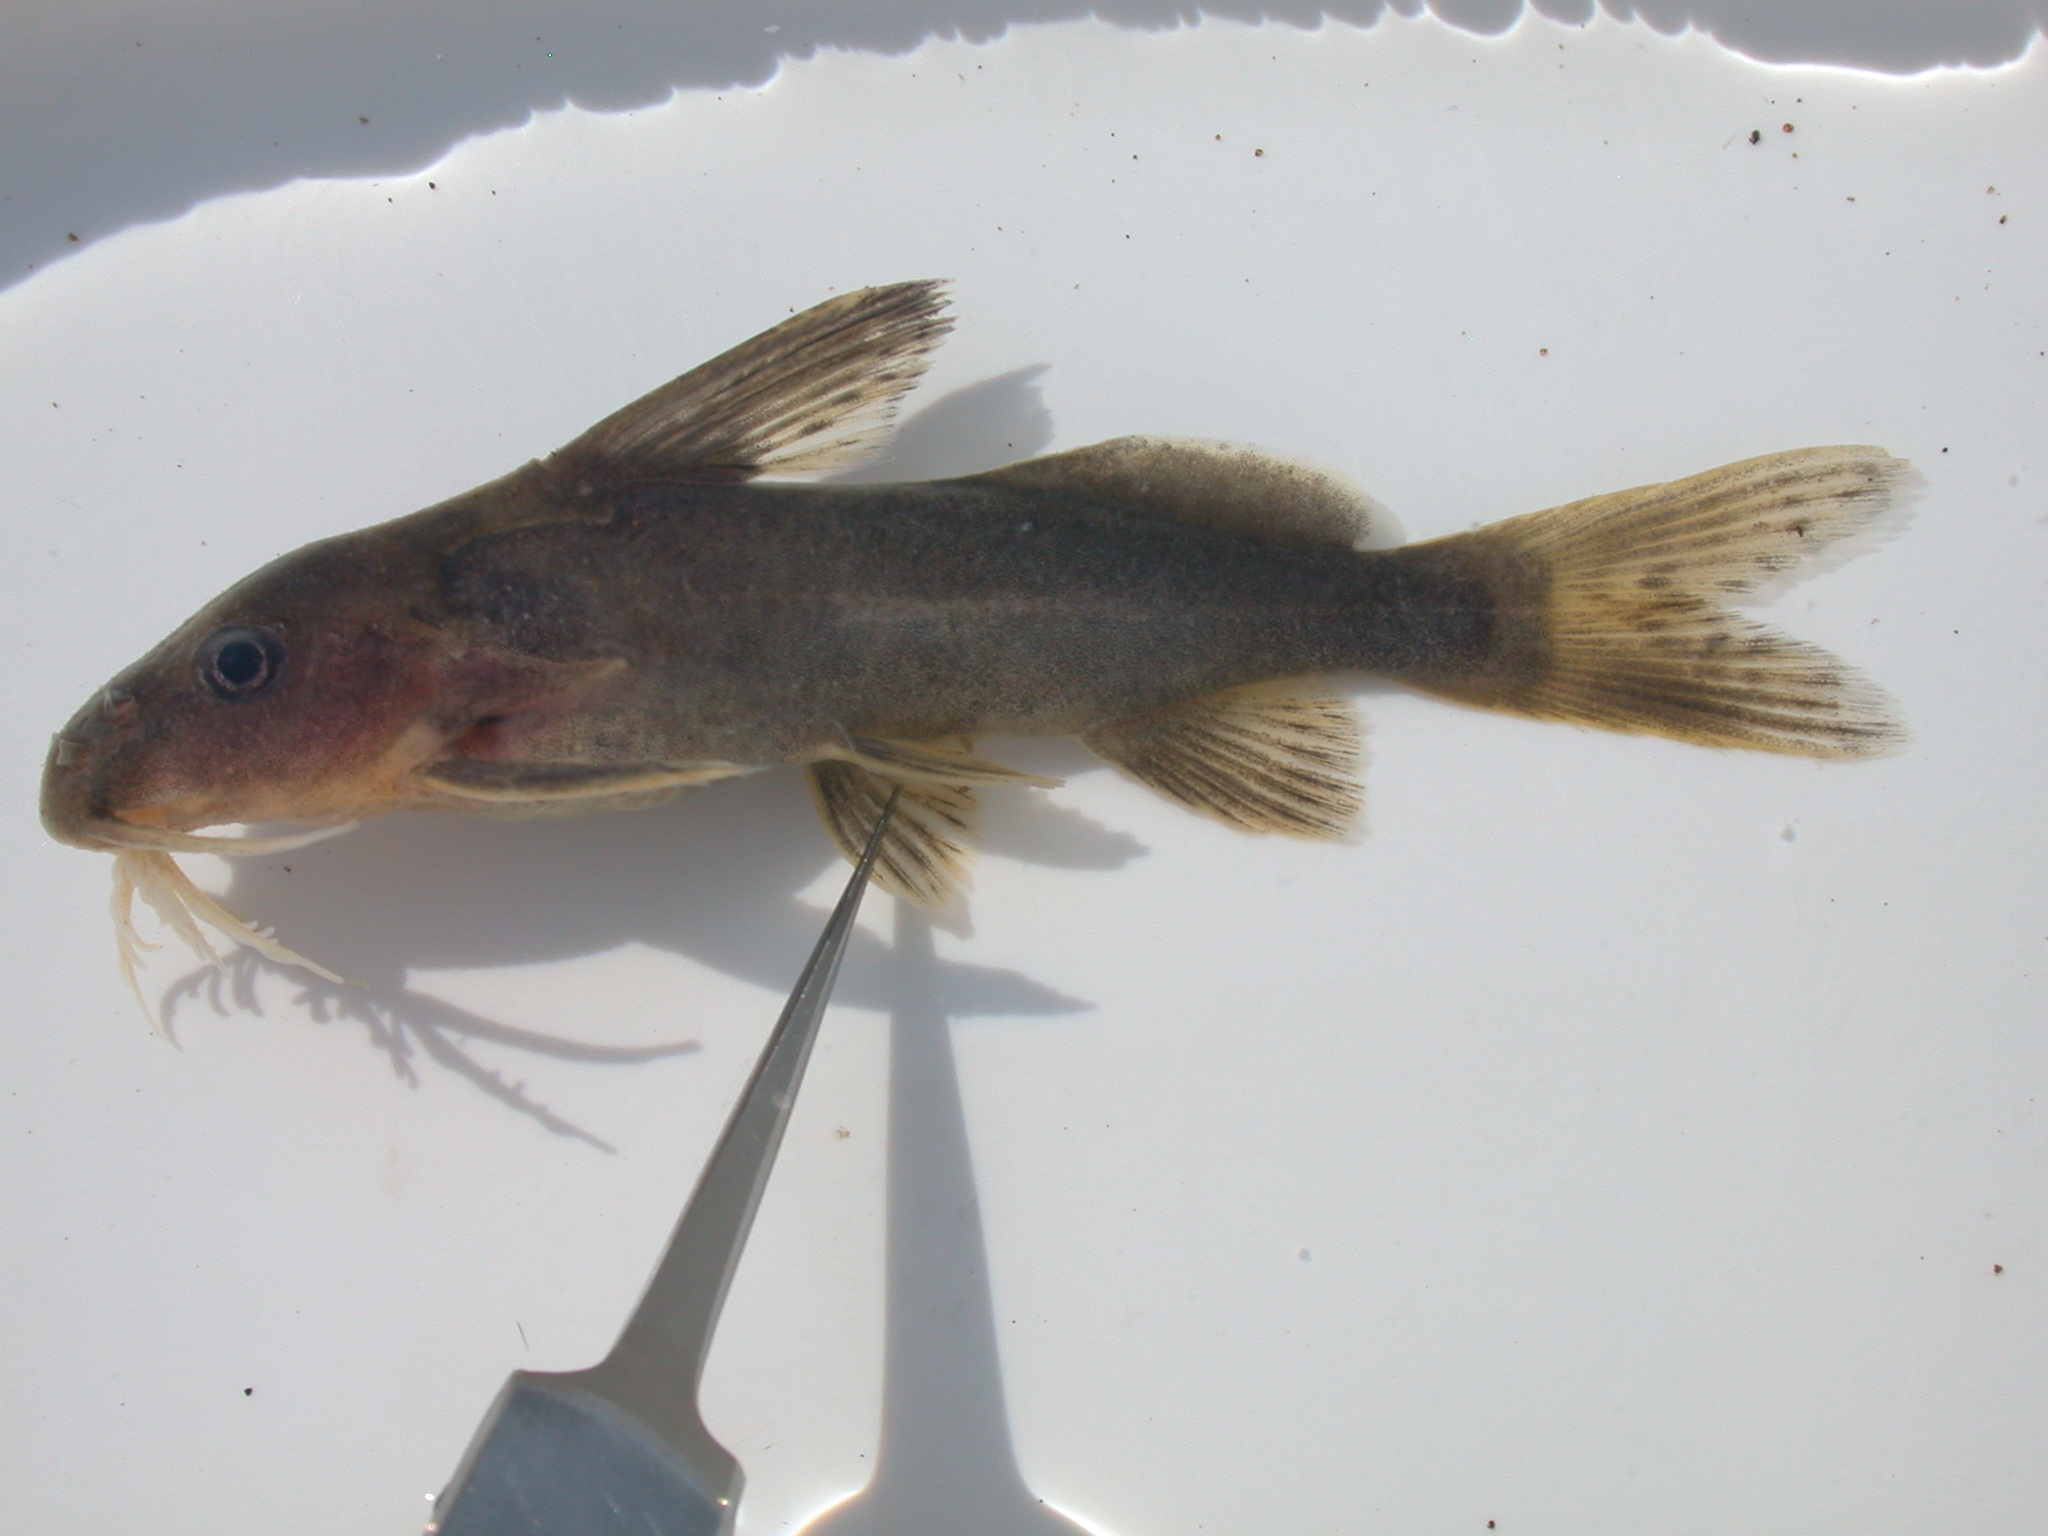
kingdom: Animalia
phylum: Chordata
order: Siluriformes
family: Mochokidae
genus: Synodontis
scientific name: Synodontis zambezensis
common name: Brown squeaker
